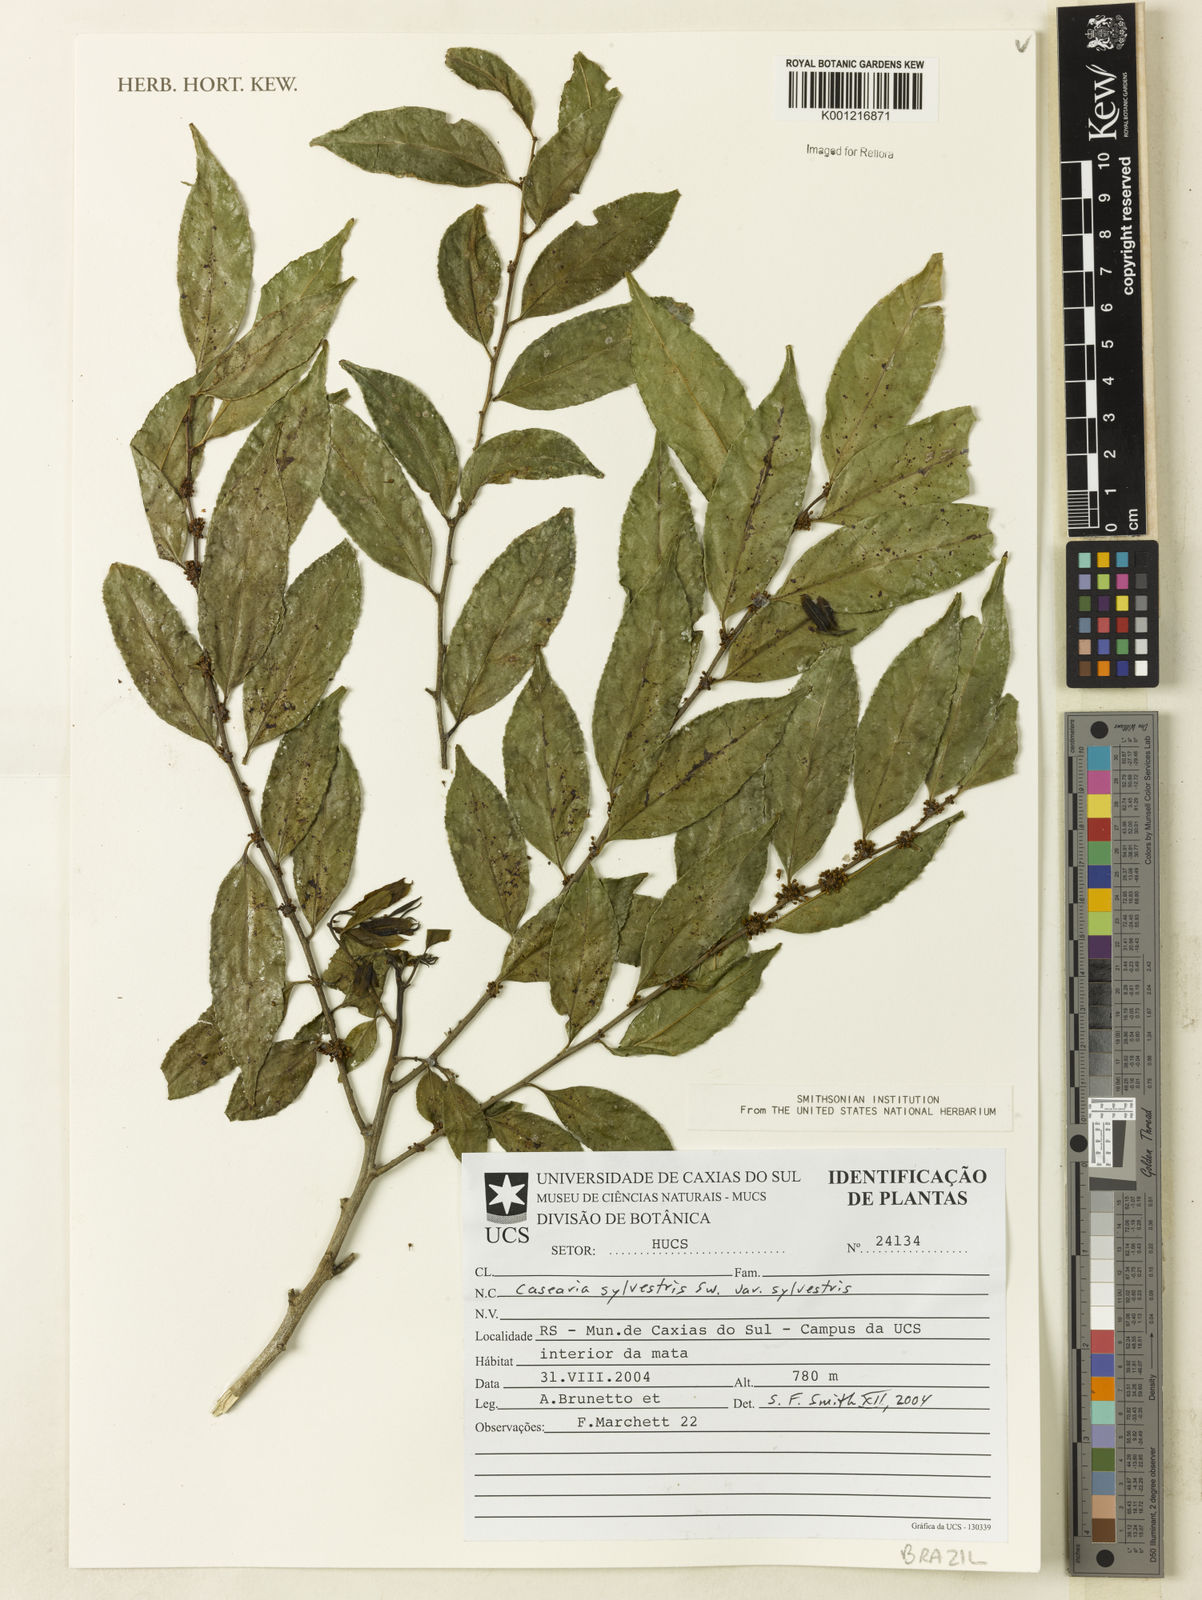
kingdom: Plantae
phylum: Tracheophyta
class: Magnoliopsida
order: Malpighiales
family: Salicaceae
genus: Casearia
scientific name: Casearia sylvestris
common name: Wild sage
